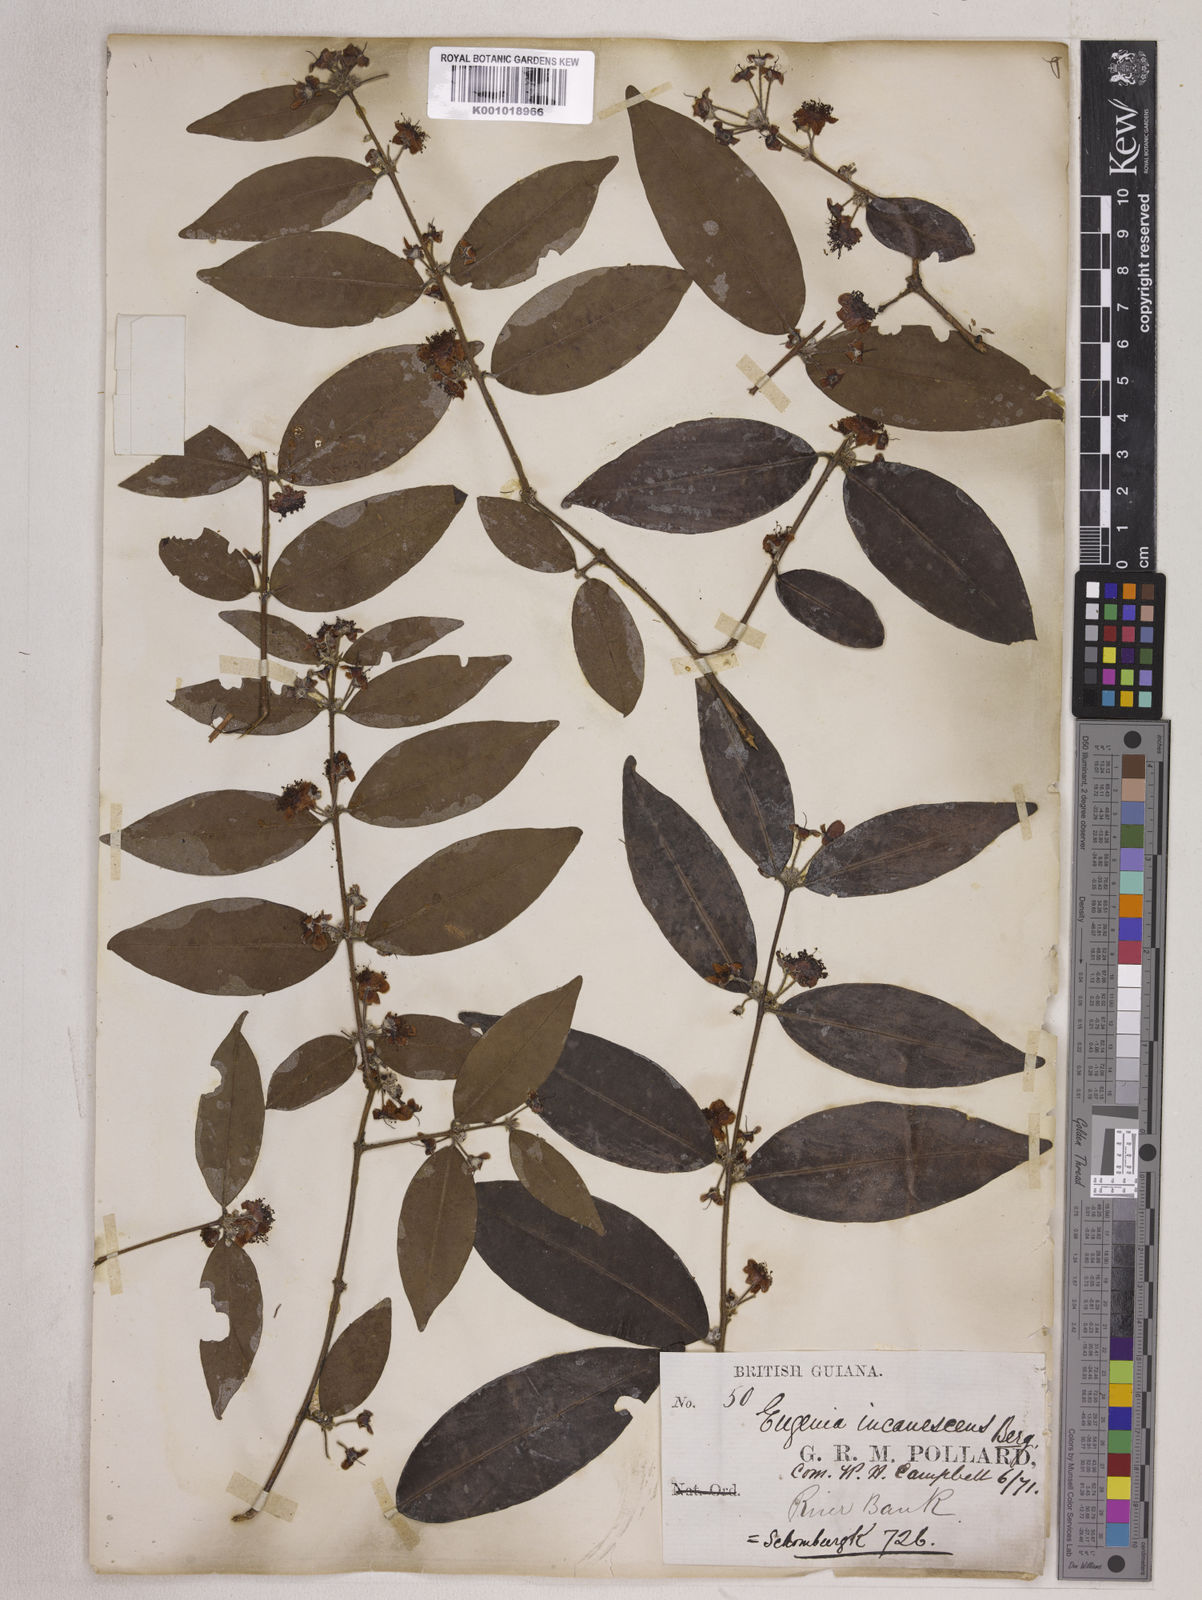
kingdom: Plantae
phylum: Tracheophyta
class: Magnoliopsida
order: Myrtales
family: Myrtaceae
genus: Eugenia
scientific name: Eugenia incanescens
